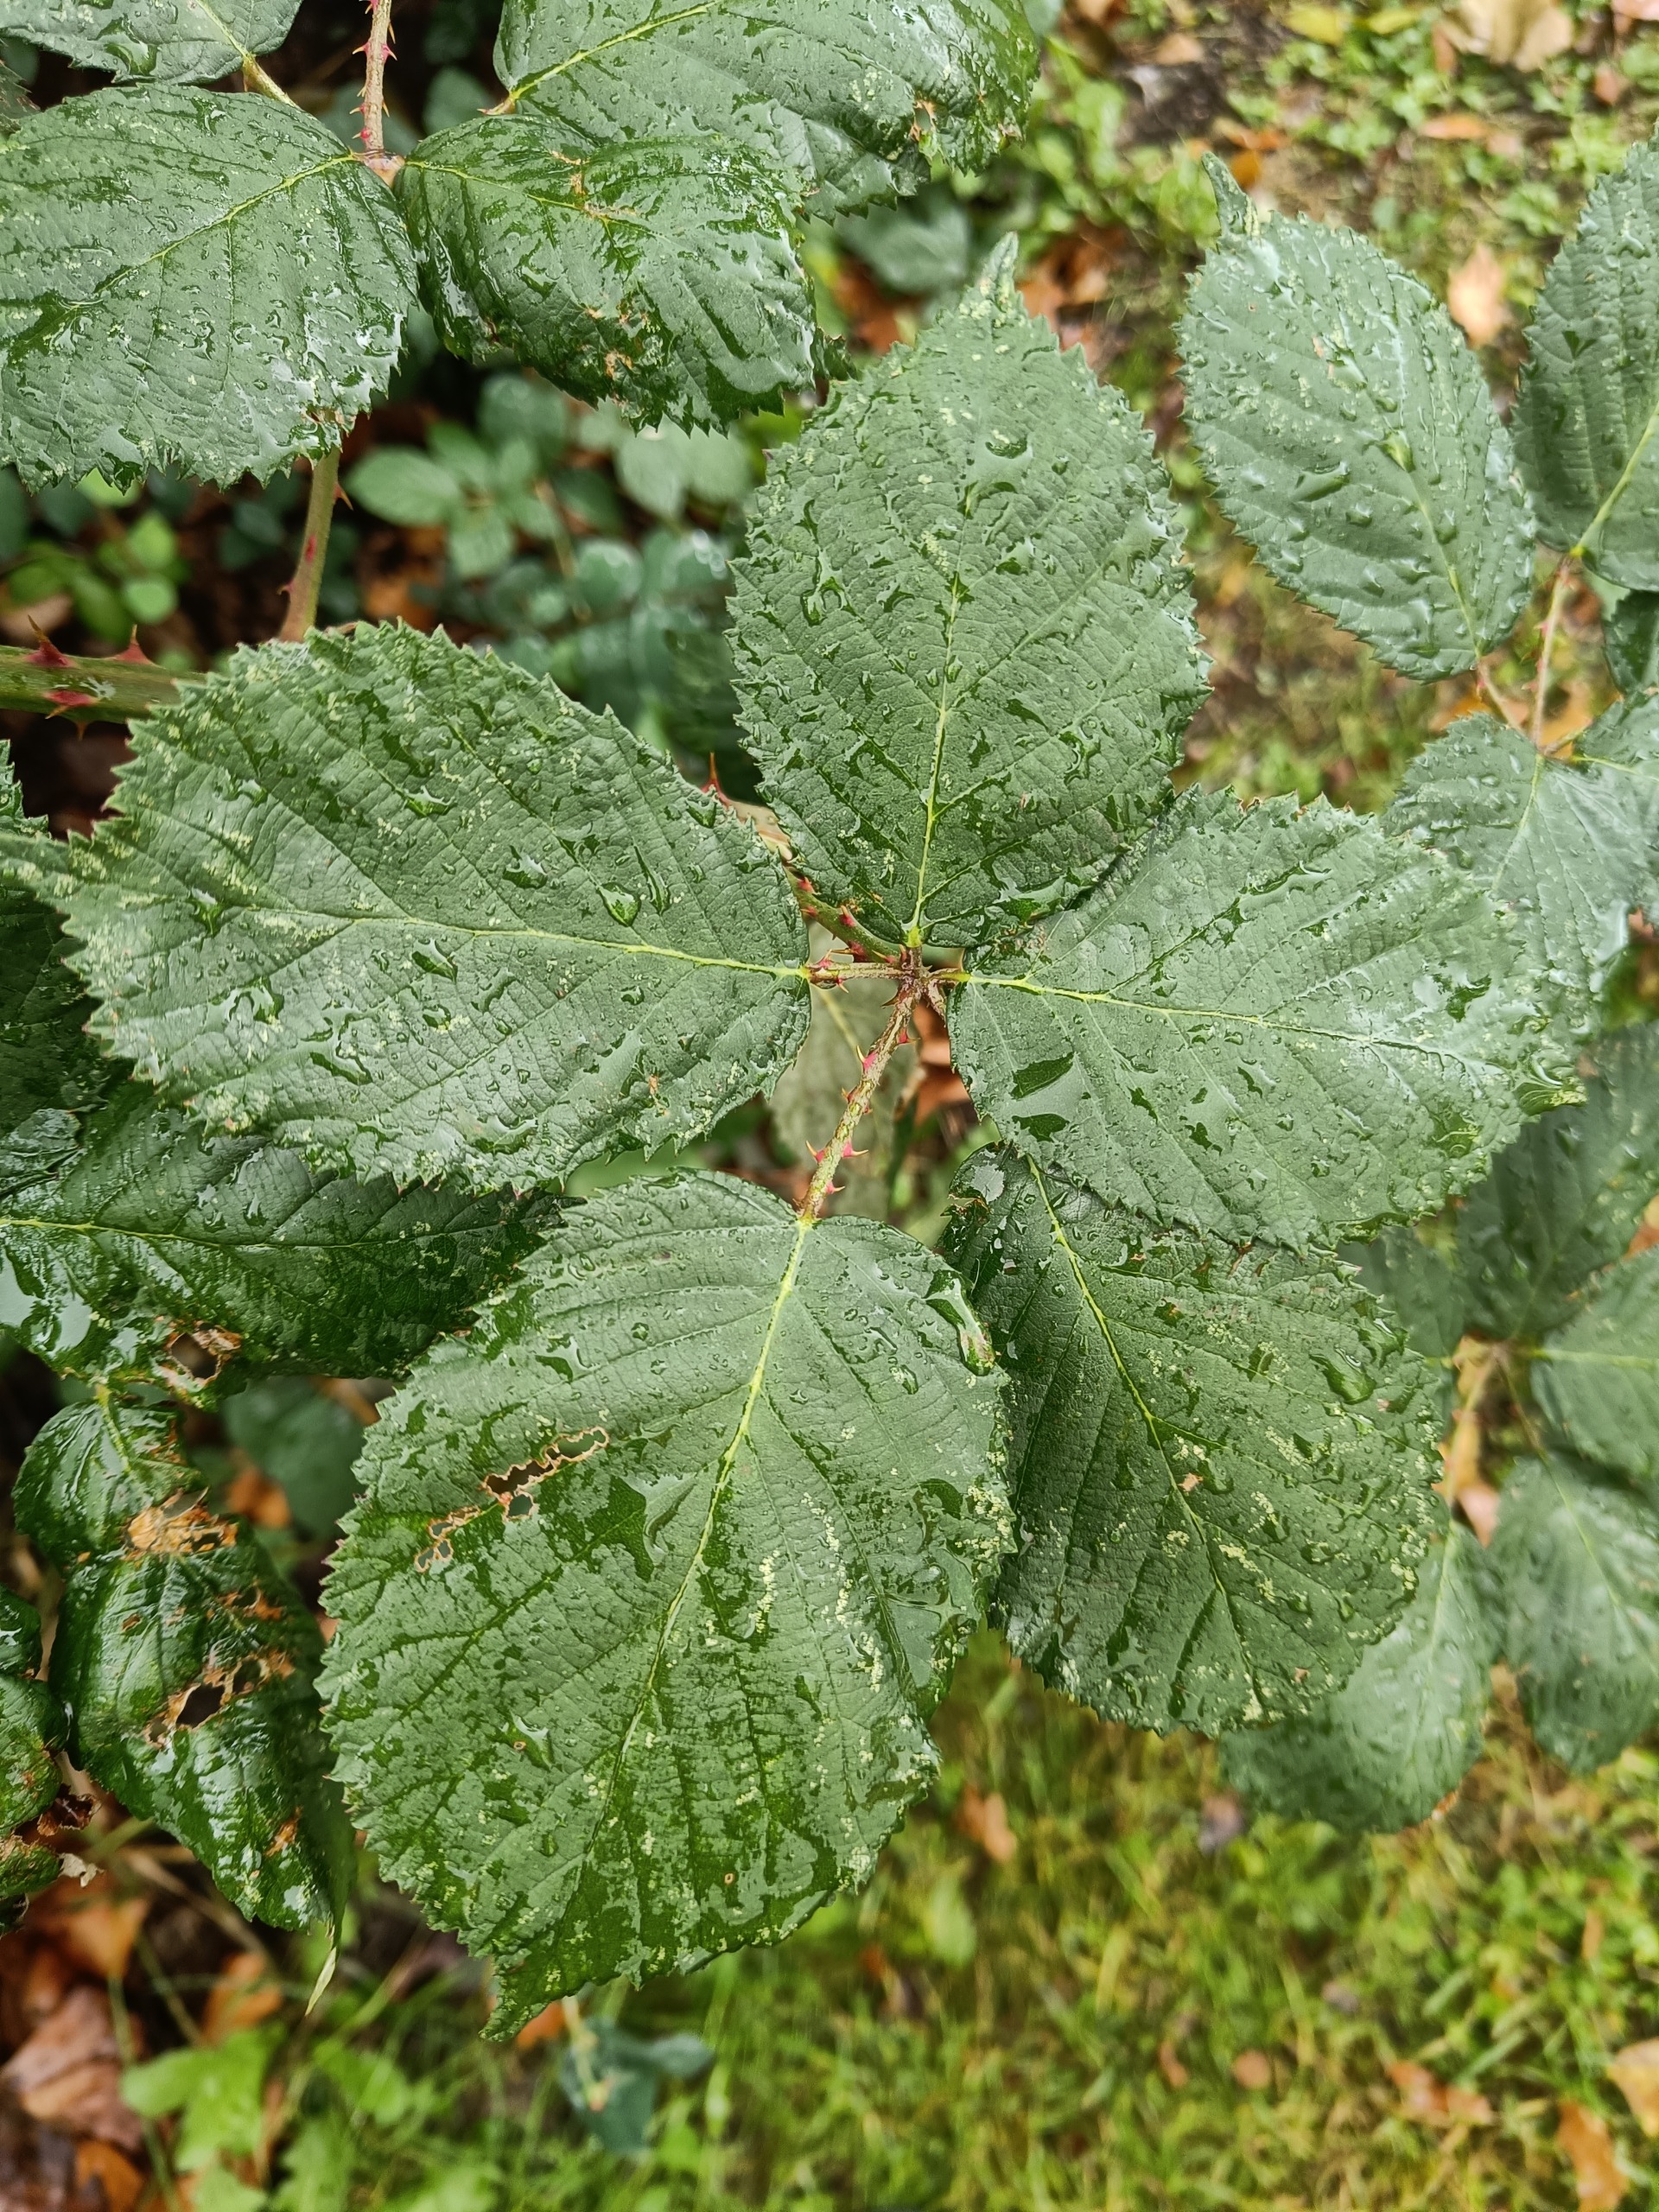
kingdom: Plantae
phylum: Tracheophyta
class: Magnoliopsida
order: Rosales
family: Rosaceae
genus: Rubus
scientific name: Rubus armeniacus
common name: Armensk brombær
